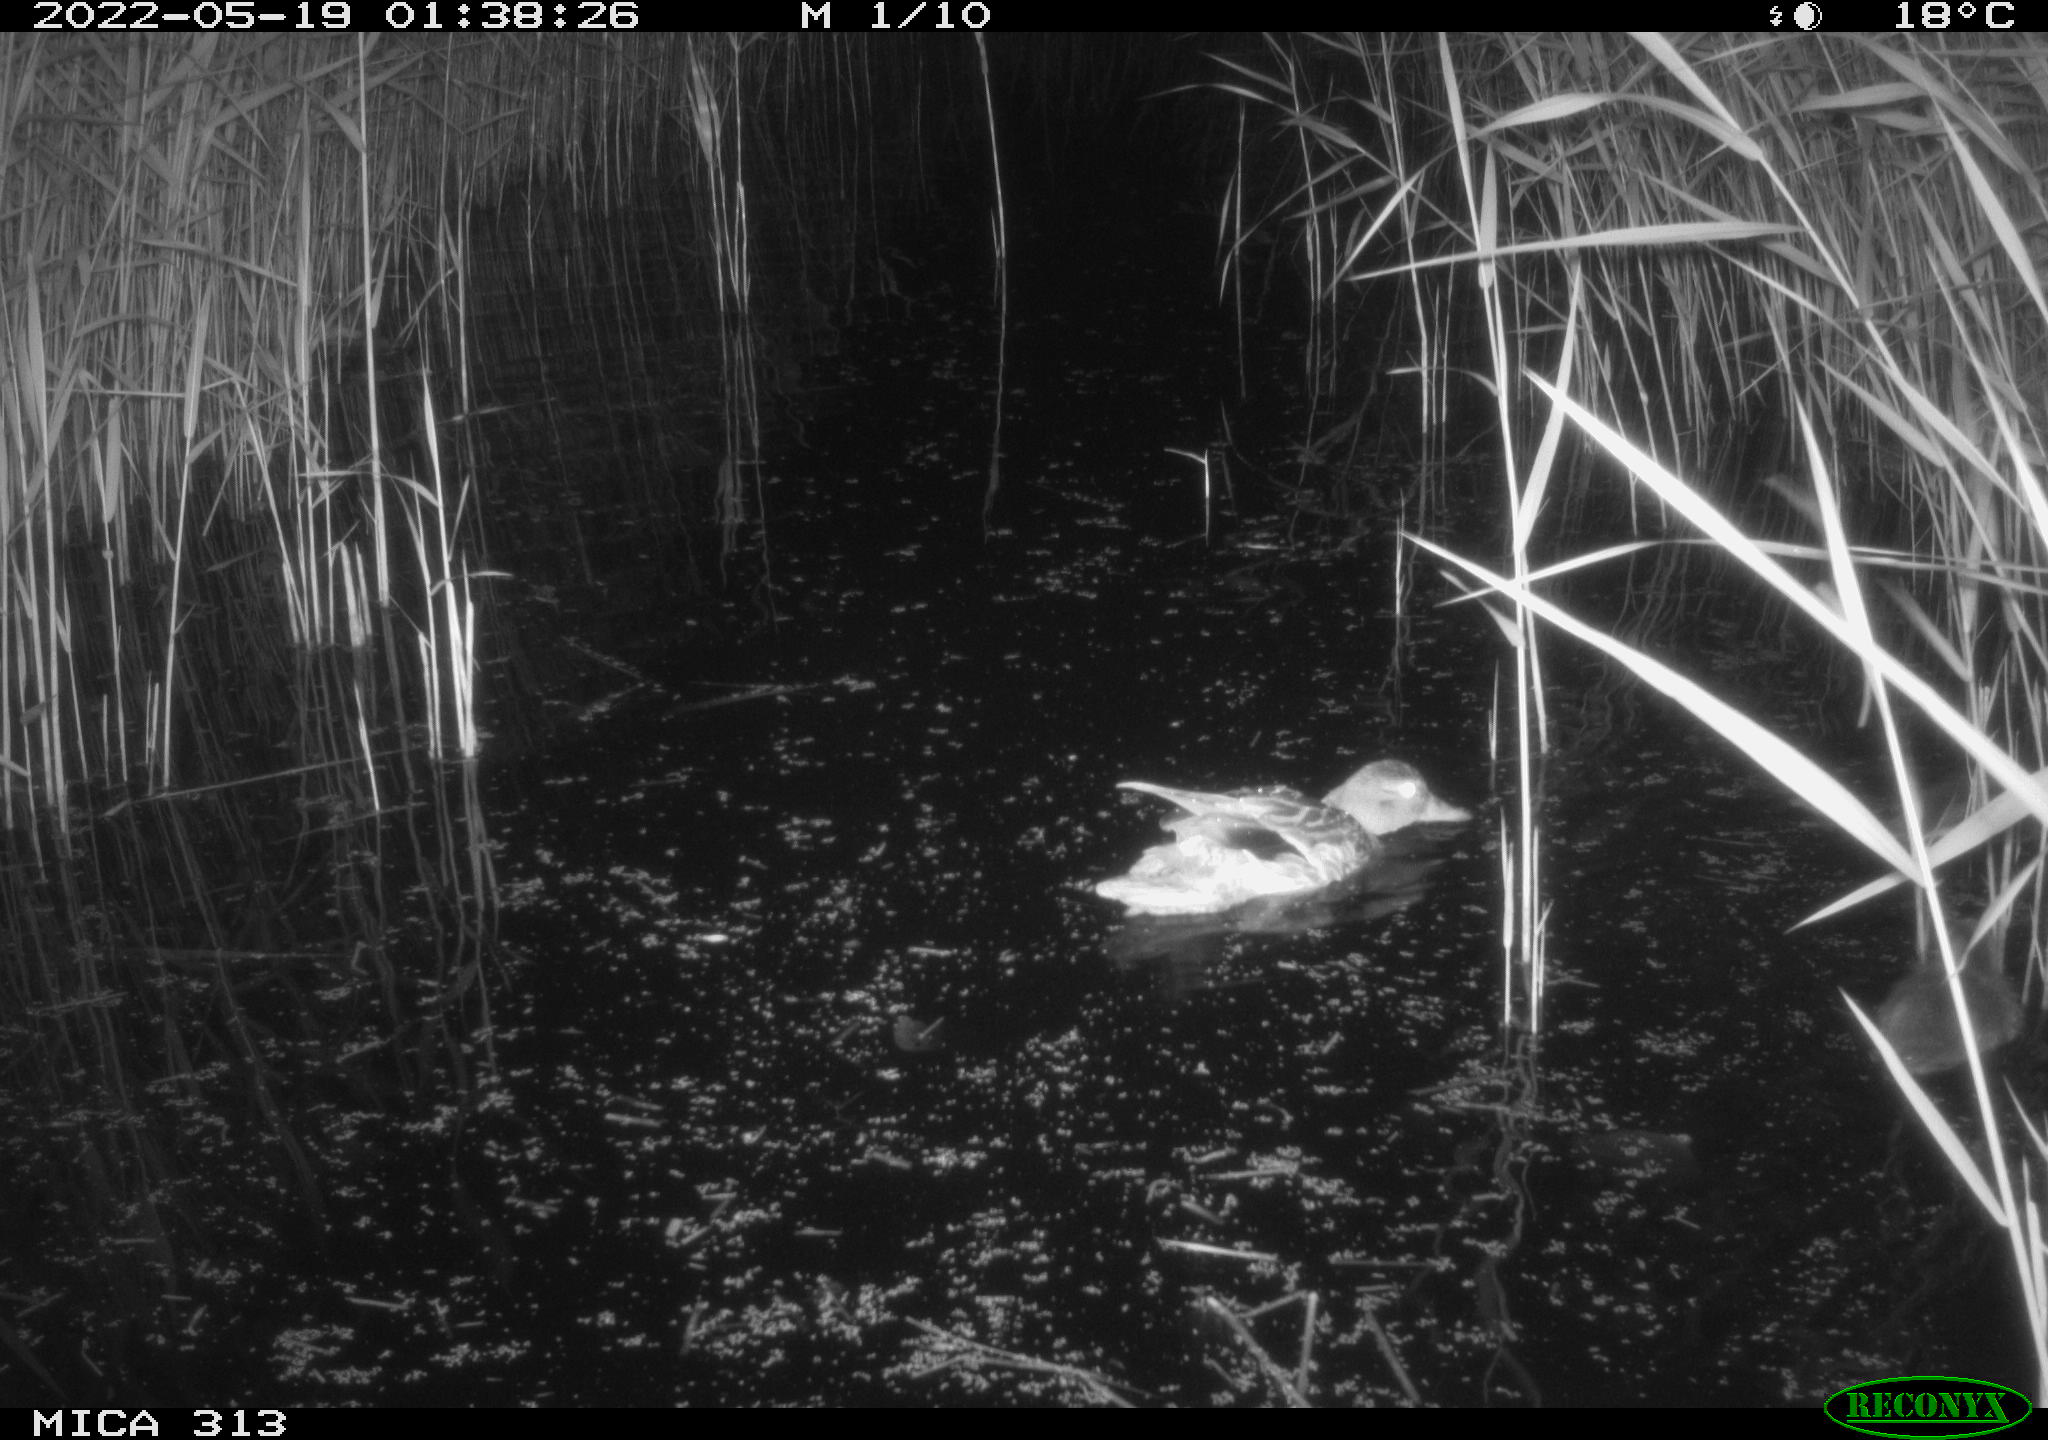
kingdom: Animalia
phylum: Chordata
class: Aves
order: Anseriformes
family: Anatidae
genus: Anas
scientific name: Anas platyrhynchos
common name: Mallard
